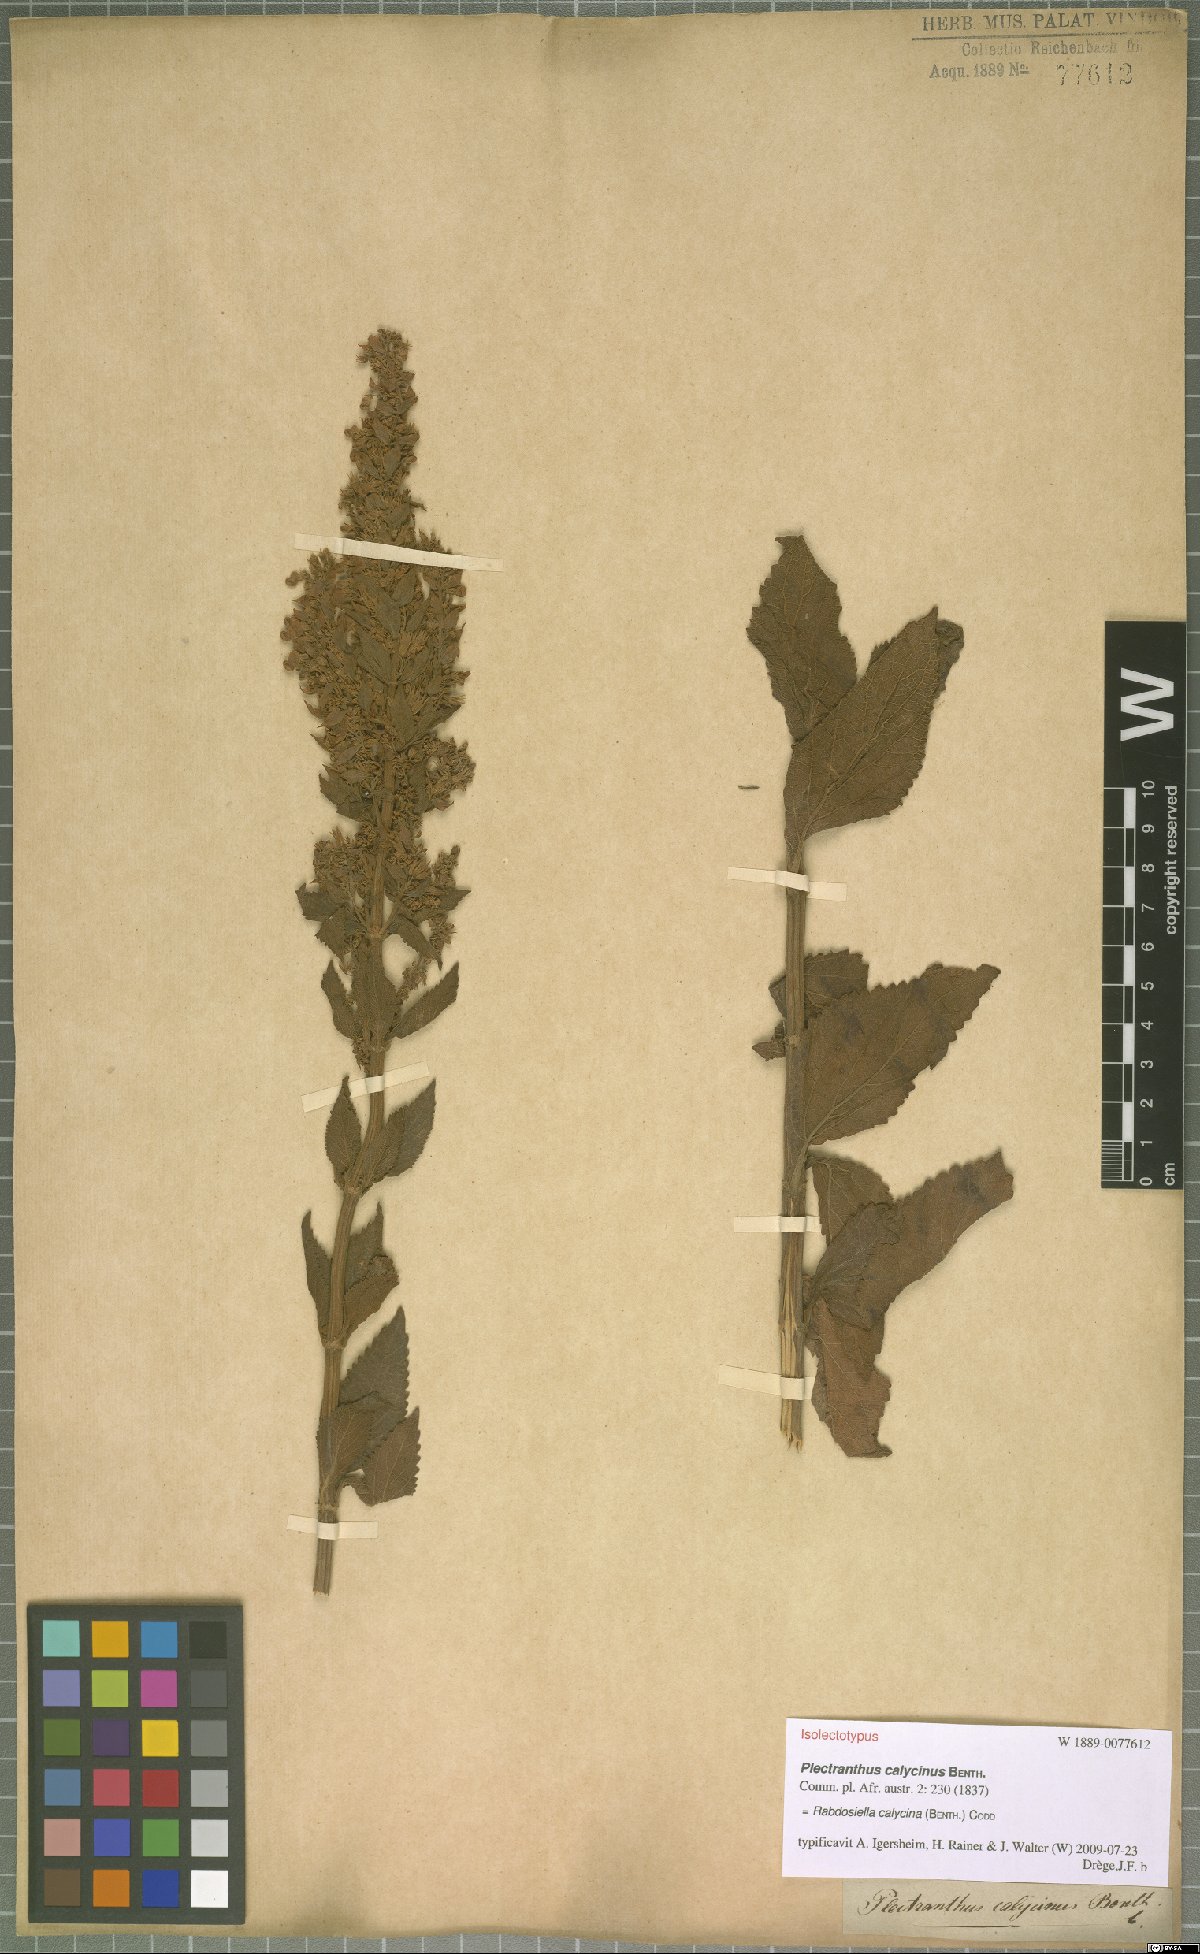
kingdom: Plantae
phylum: Tracheophyta
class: Magnoliopsida
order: Lamiales
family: Lamiaceae
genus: Coleus
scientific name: Coleus calycinus
